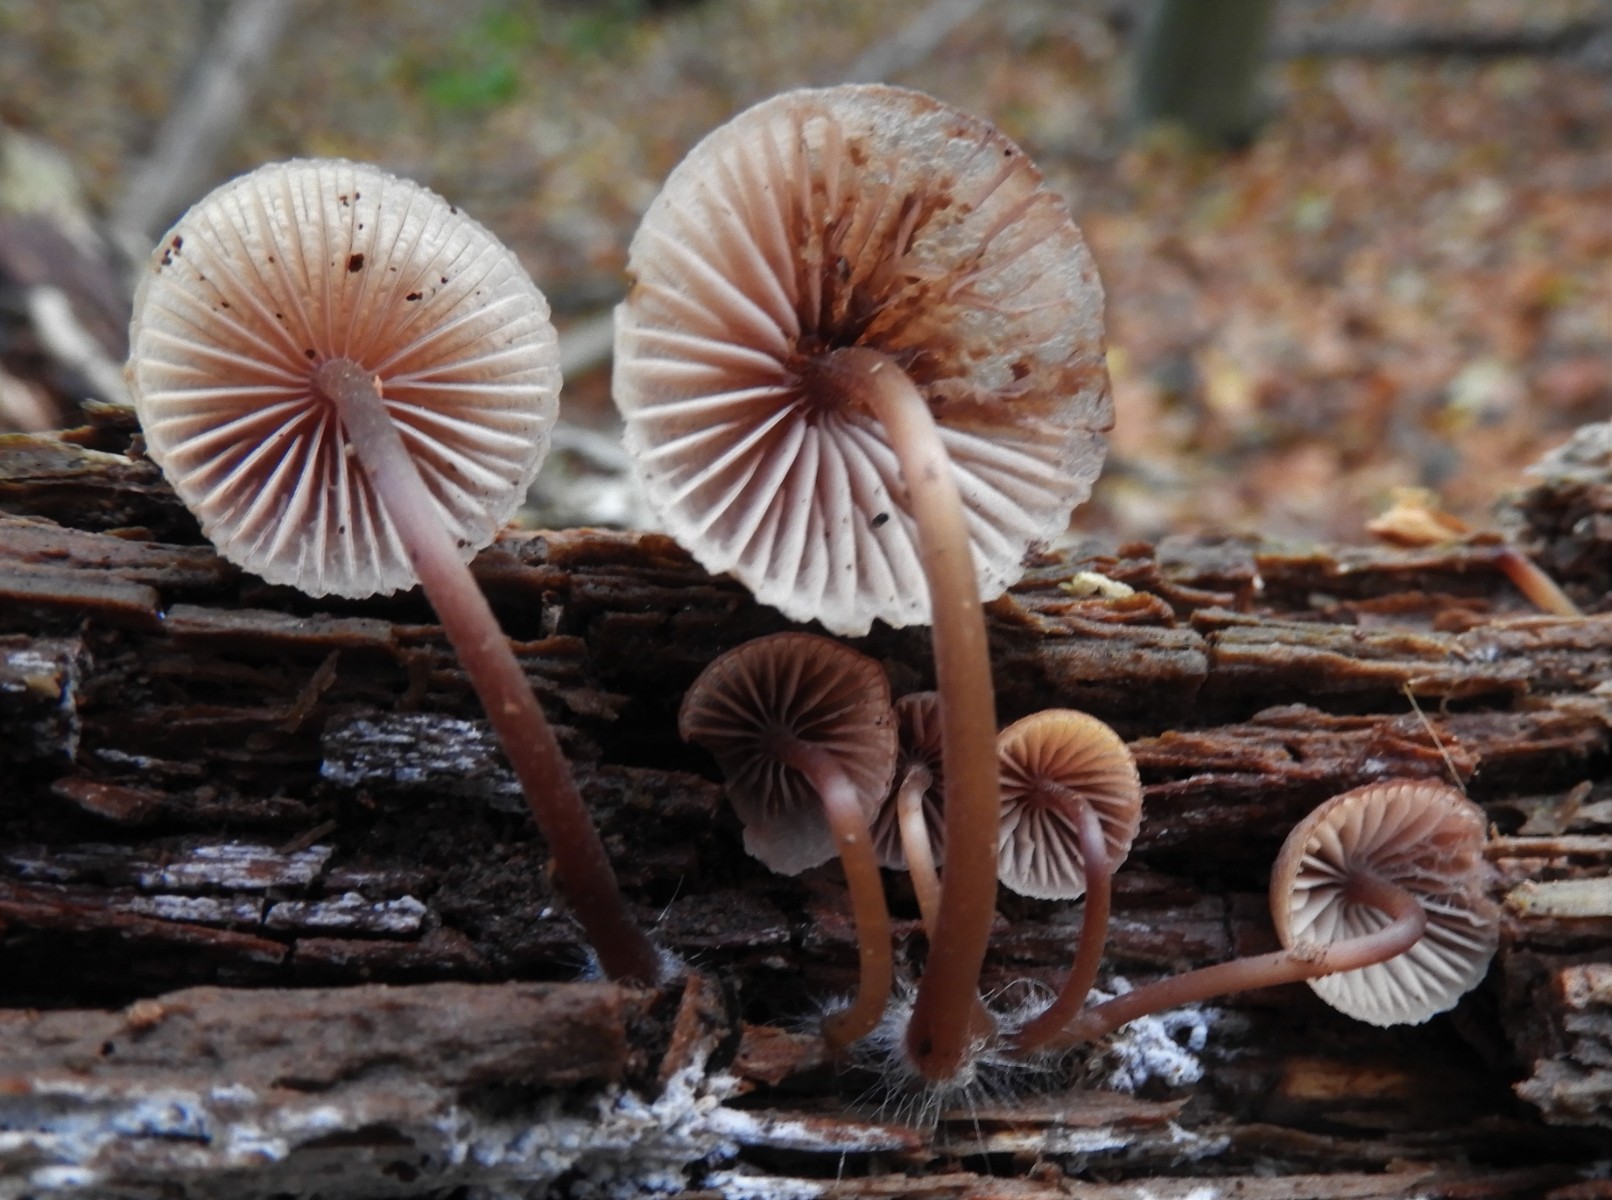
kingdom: Fungi
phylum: Basidiomycota
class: Agaricomycetes
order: Agaricales
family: Mycenaceae
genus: Mycena
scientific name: Mycena haematopus
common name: blødende huesvamp
